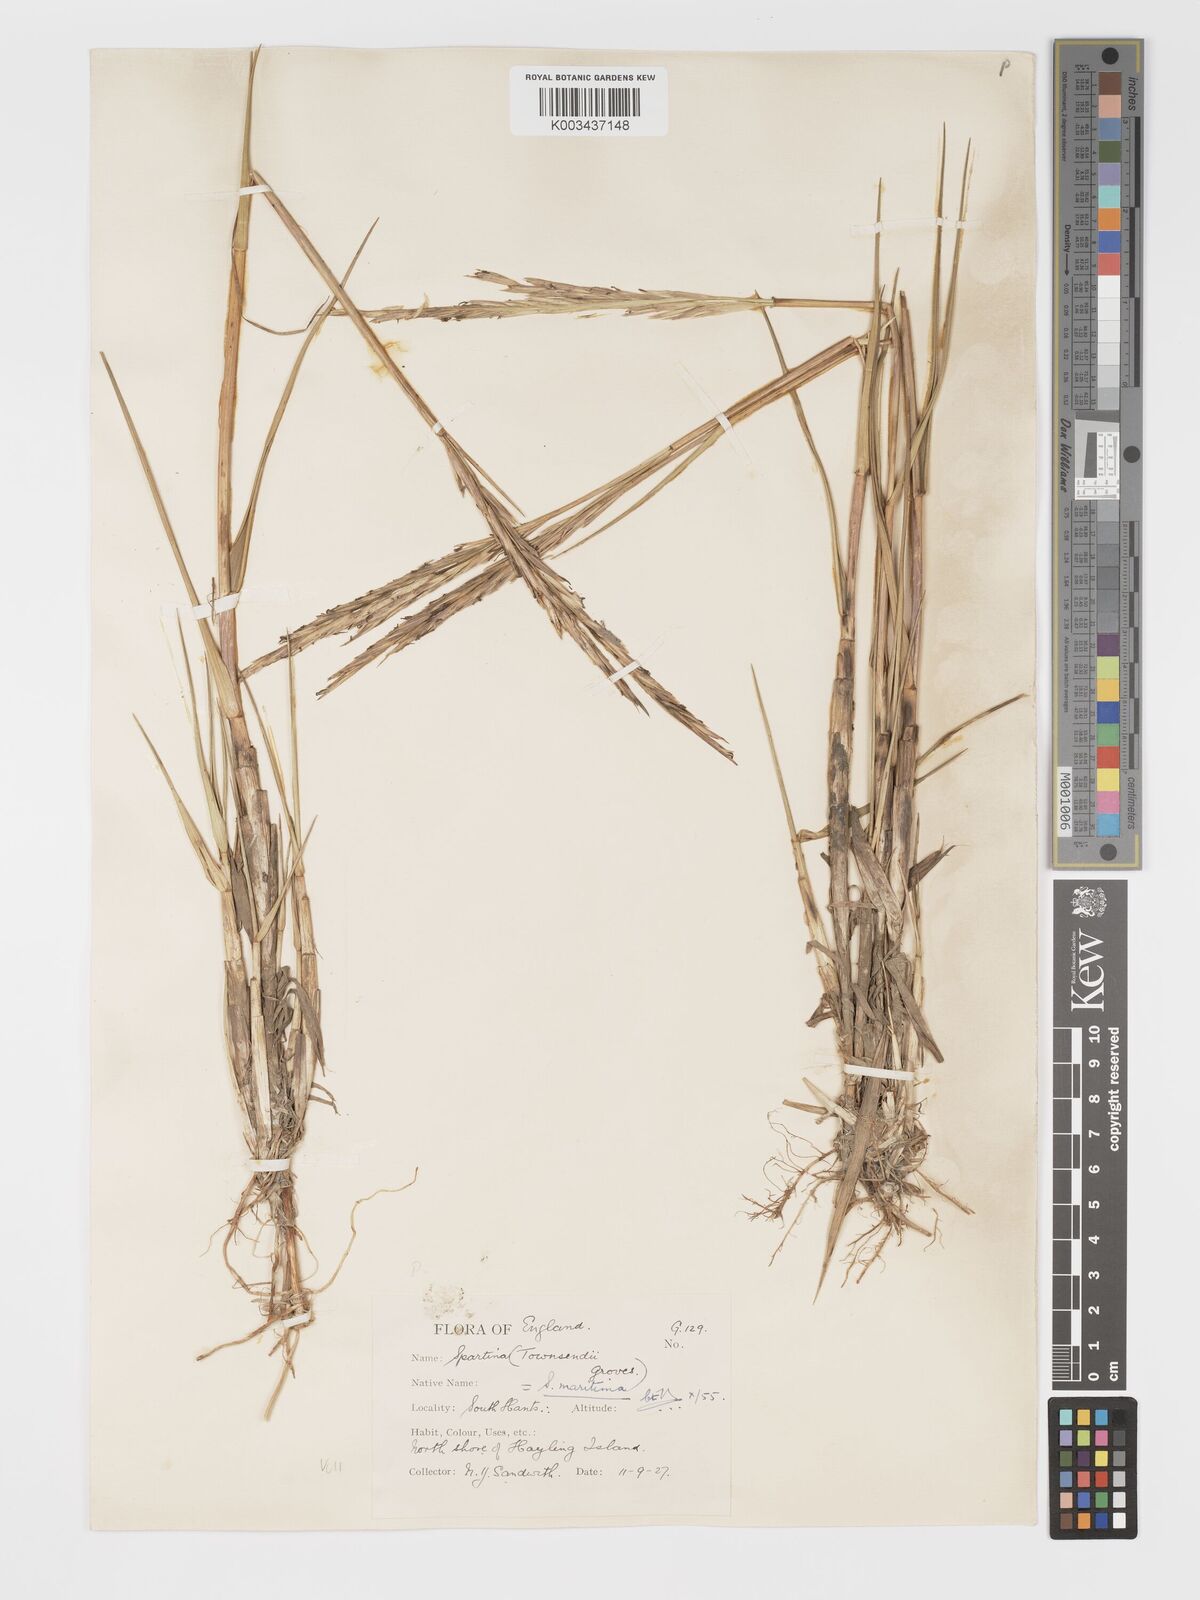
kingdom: Plantae
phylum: Tracheophyta
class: Liliopsida
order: Poales
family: Poaceae
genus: Sporobolus
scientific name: Sporobolus maritimus
